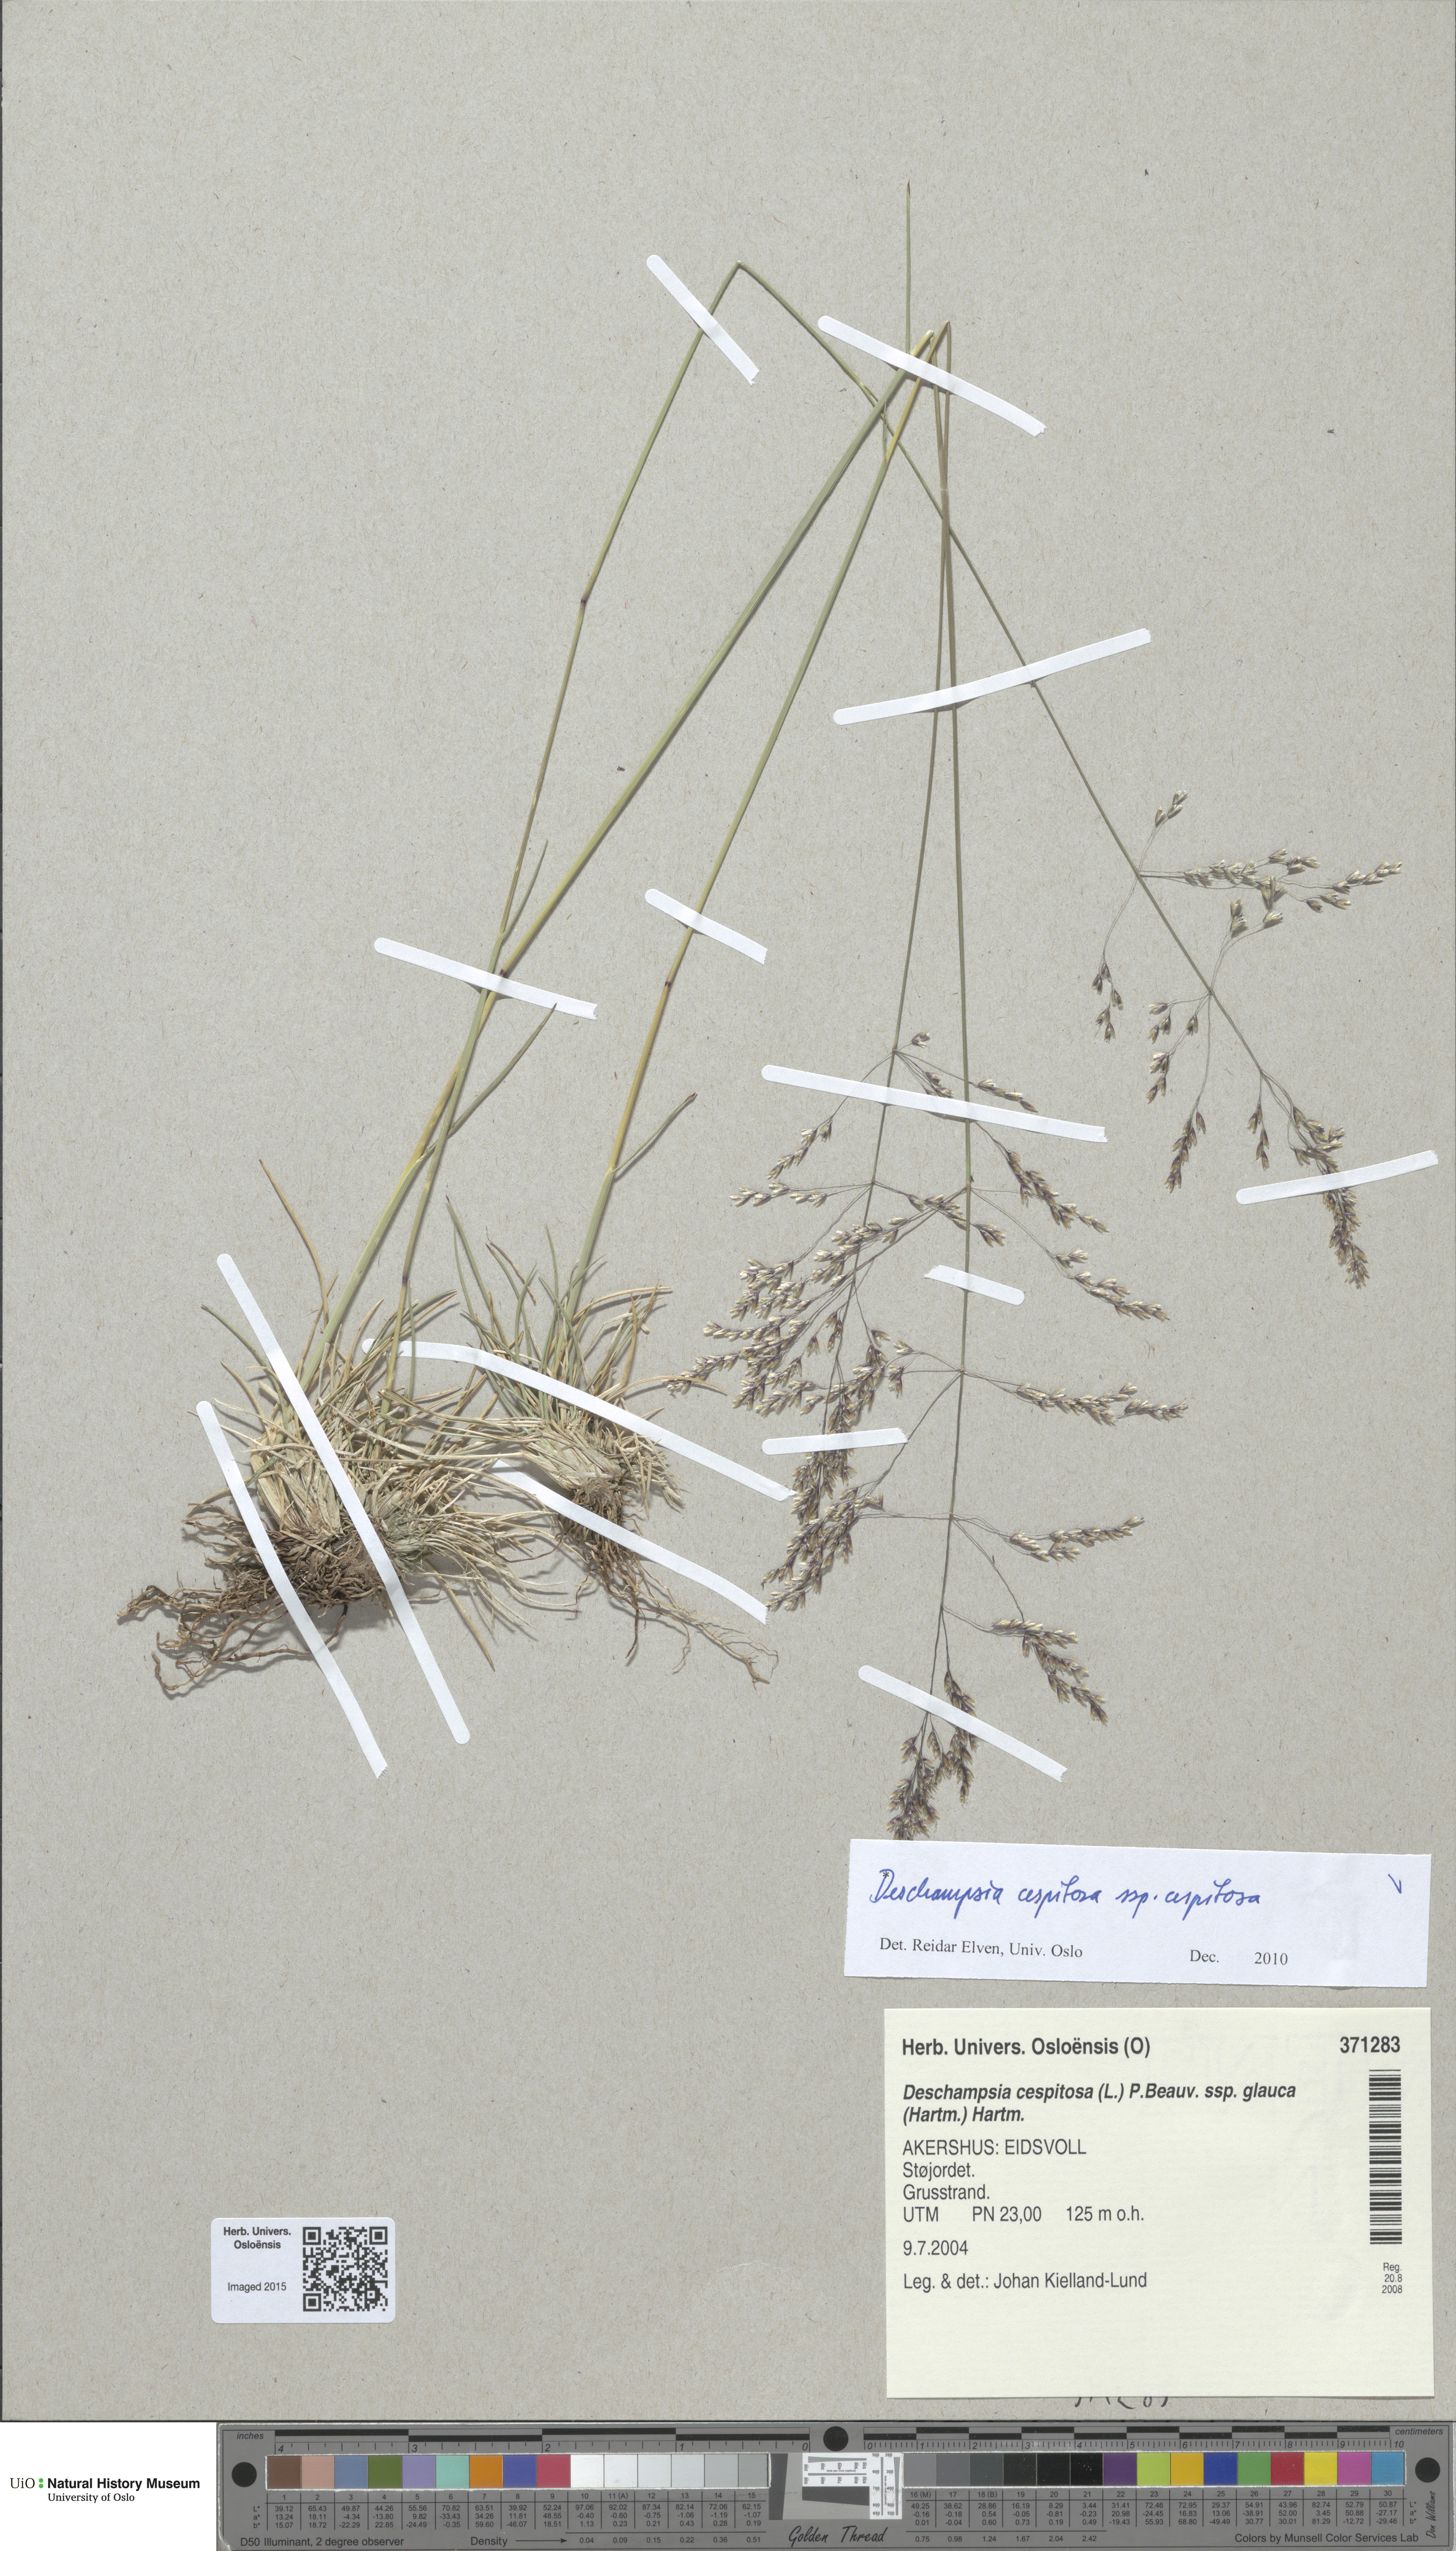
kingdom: Plantae
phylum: Tracheophyta
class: Liliopsida
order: Poales
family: Poaceae
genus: Deschampsia
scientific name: Deschampsia cespitosa
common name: Tufted hair-grass
